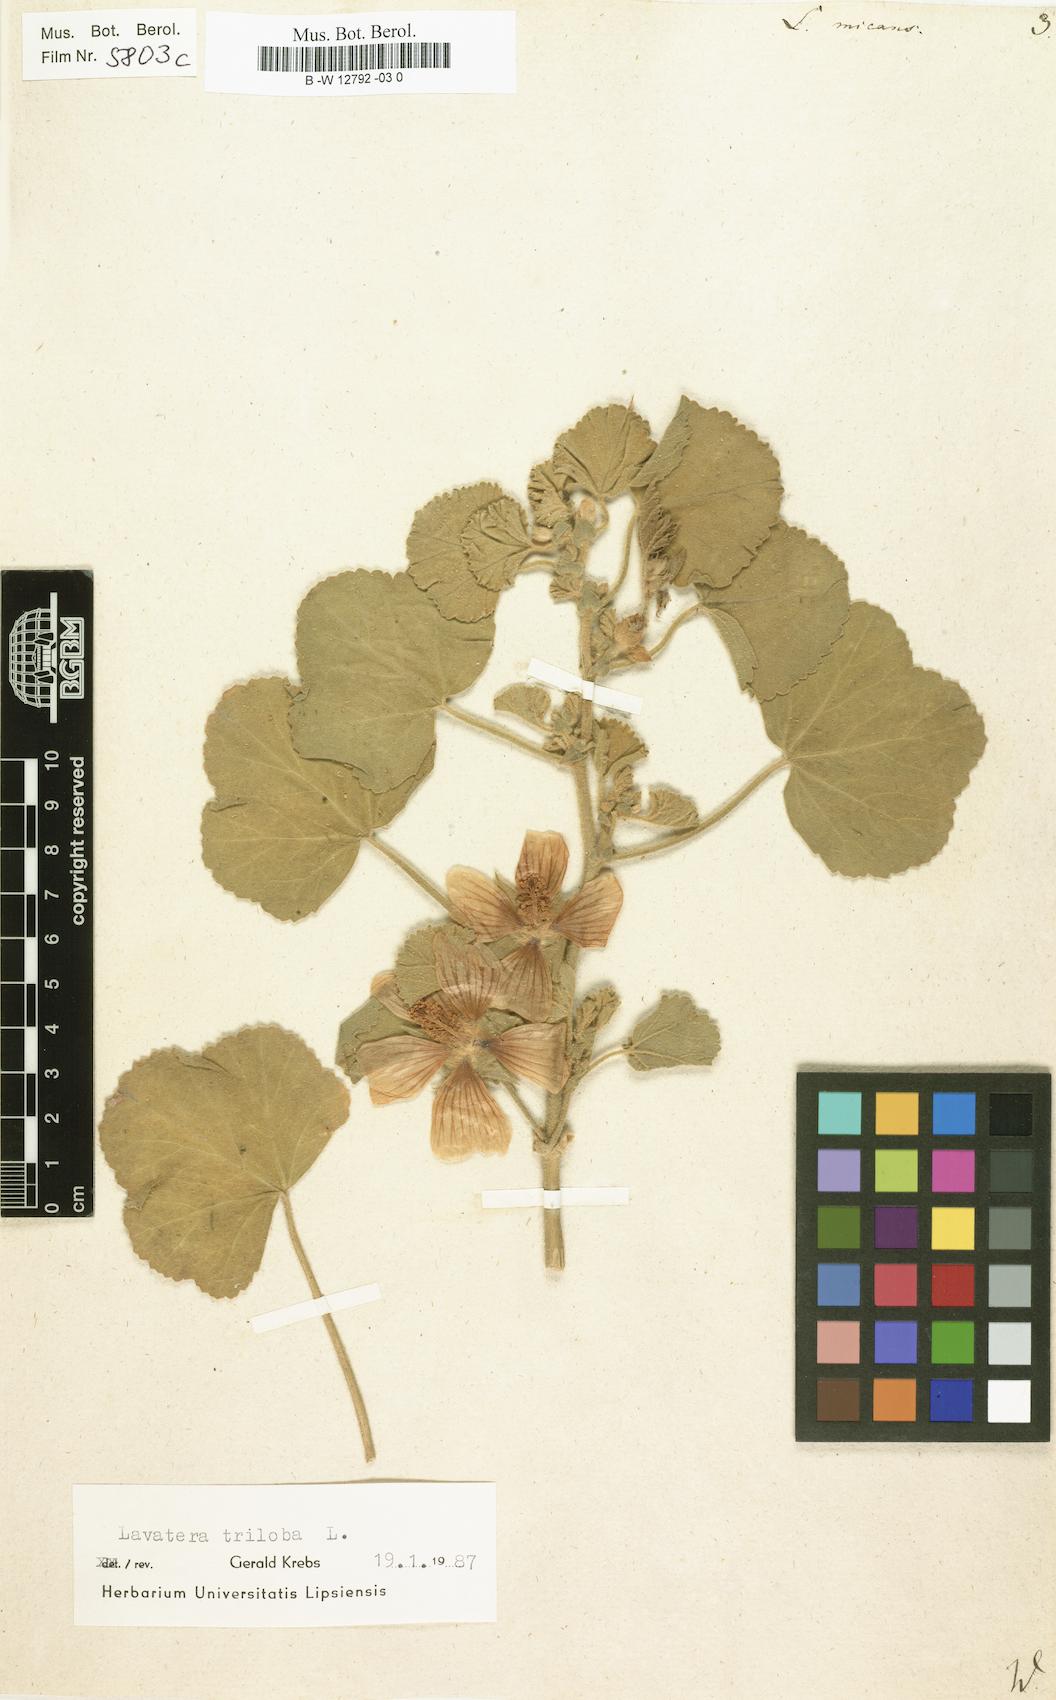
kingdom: Plantae
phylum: Tracheophyta
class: Magnoliopsida
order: Malvales
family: Malvaceae
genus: Malva
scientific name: Malva subovata
